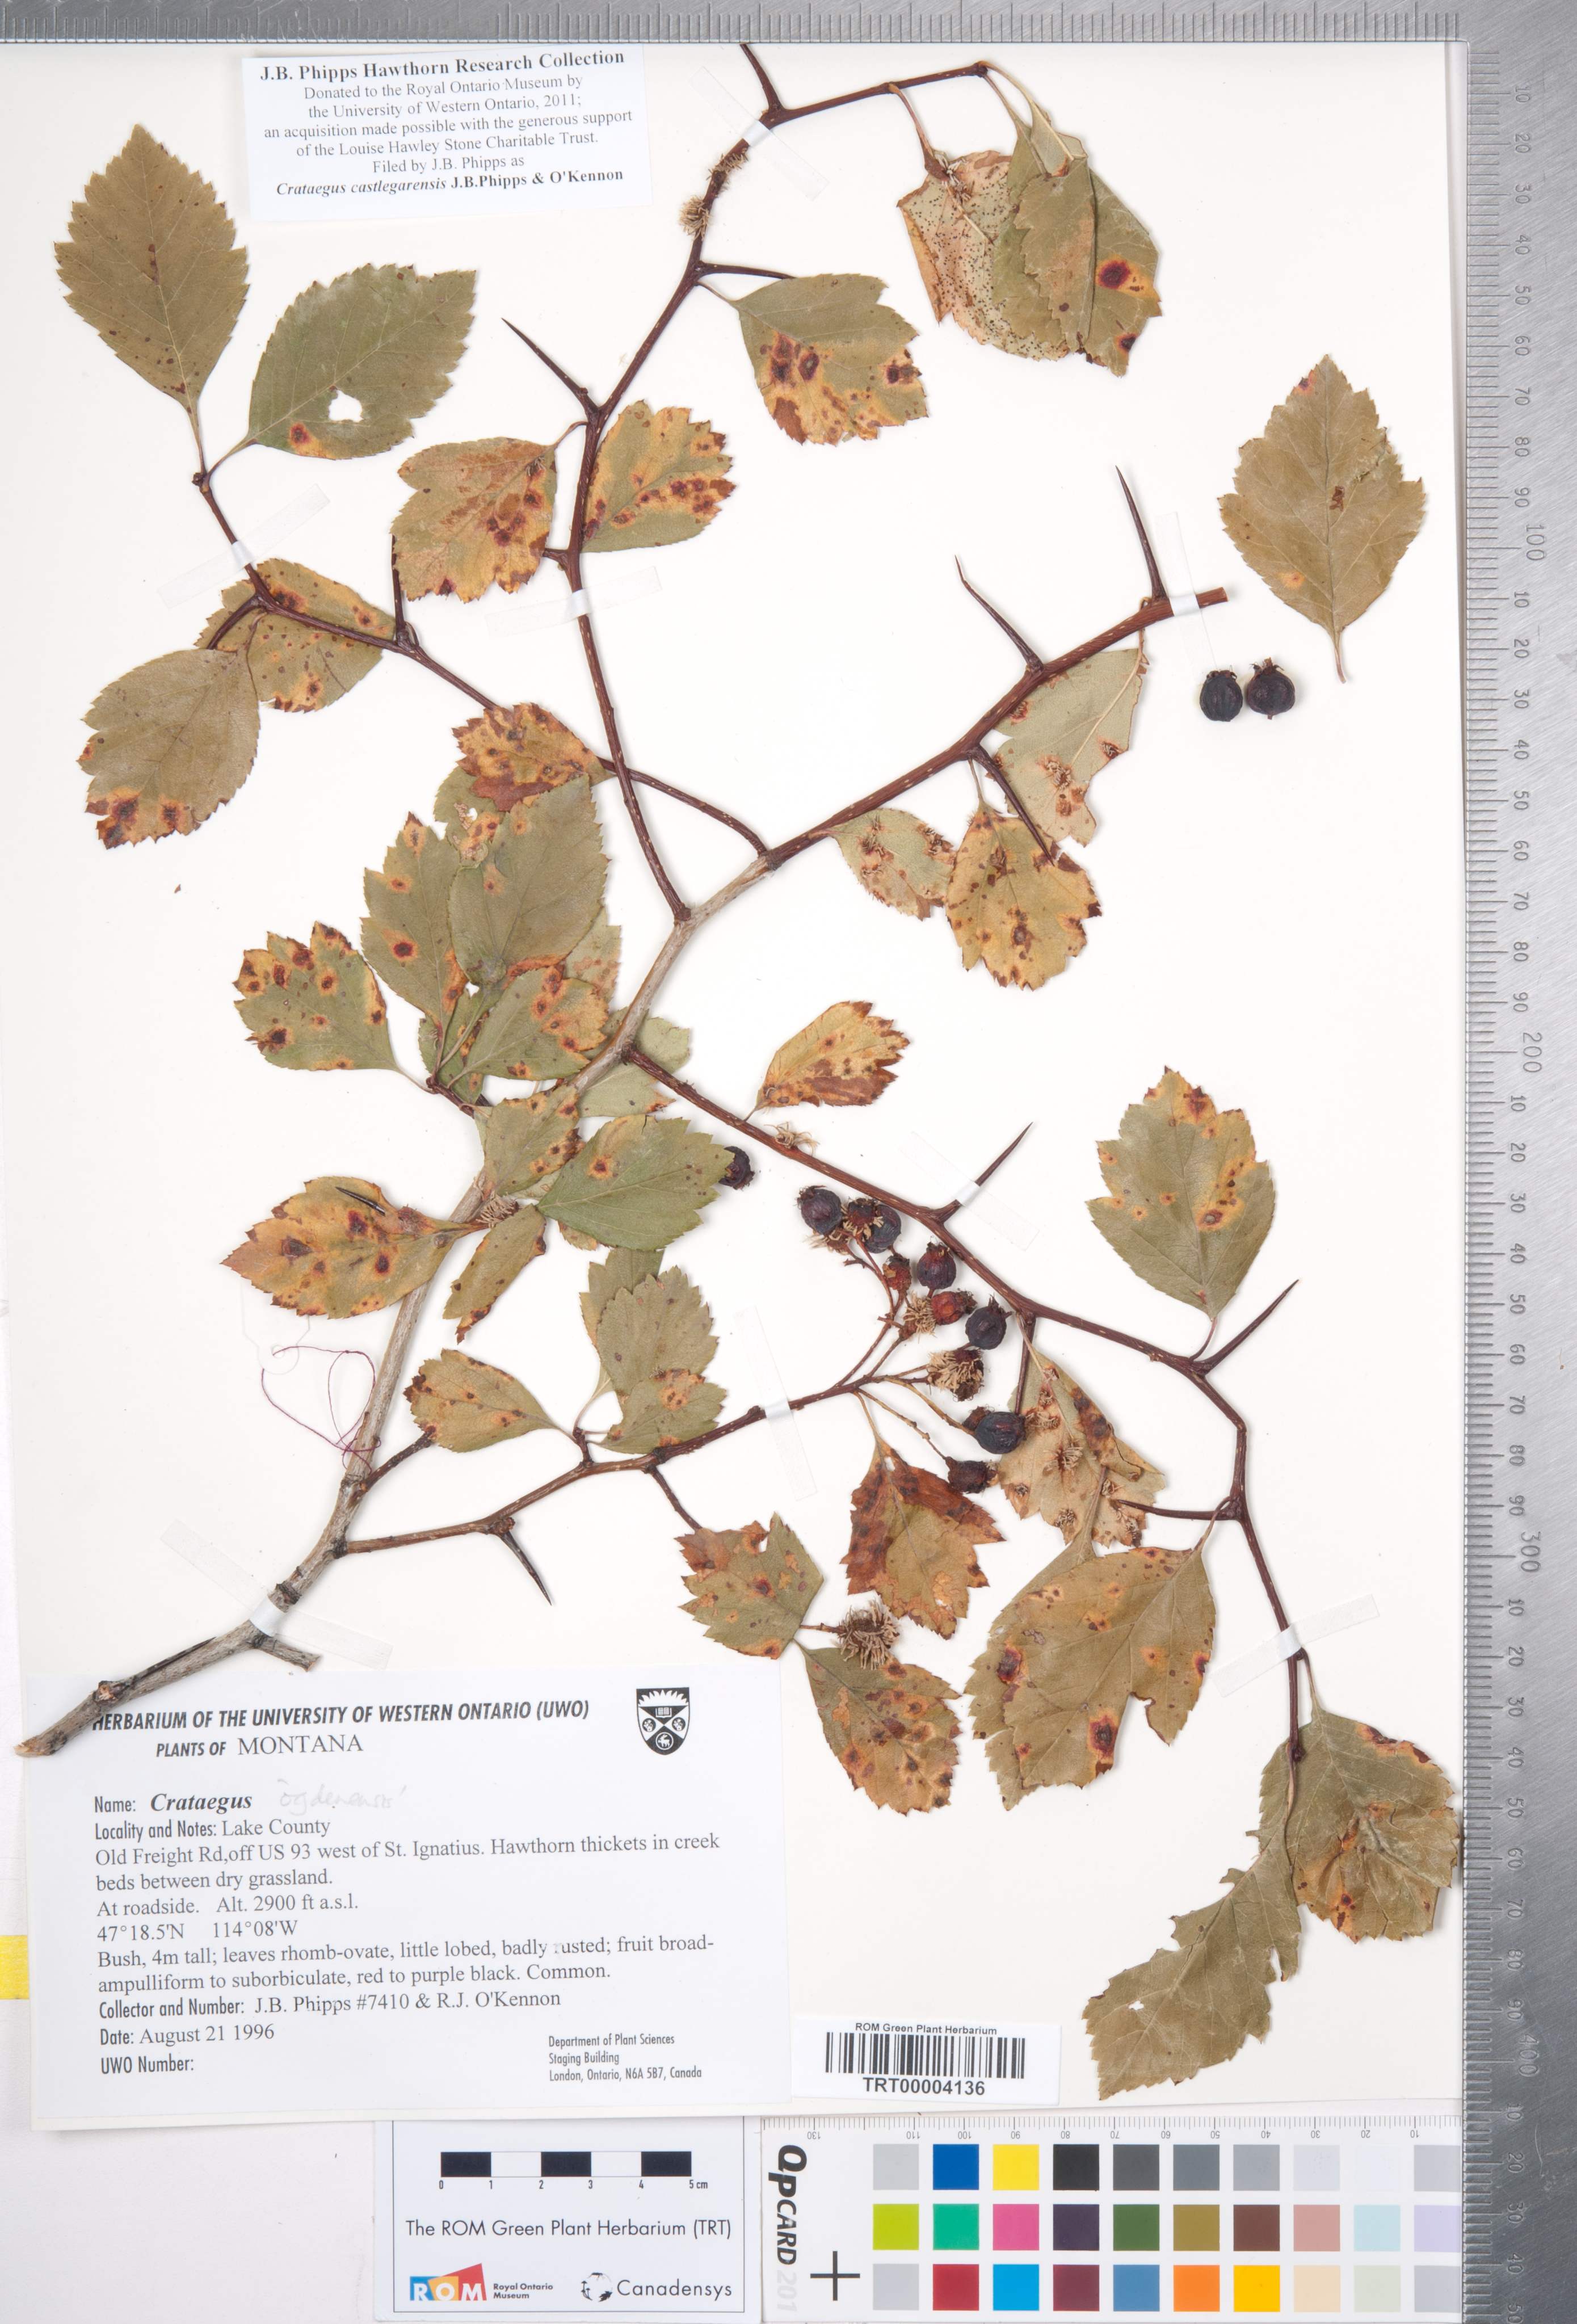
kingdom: Plantae
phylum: Tracheophyta
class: Magnoliopsida
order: Rosales
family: Rosaceae
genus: Crataegus
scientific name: Crataegus castlegarensis
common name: Castlegar hawthorn
